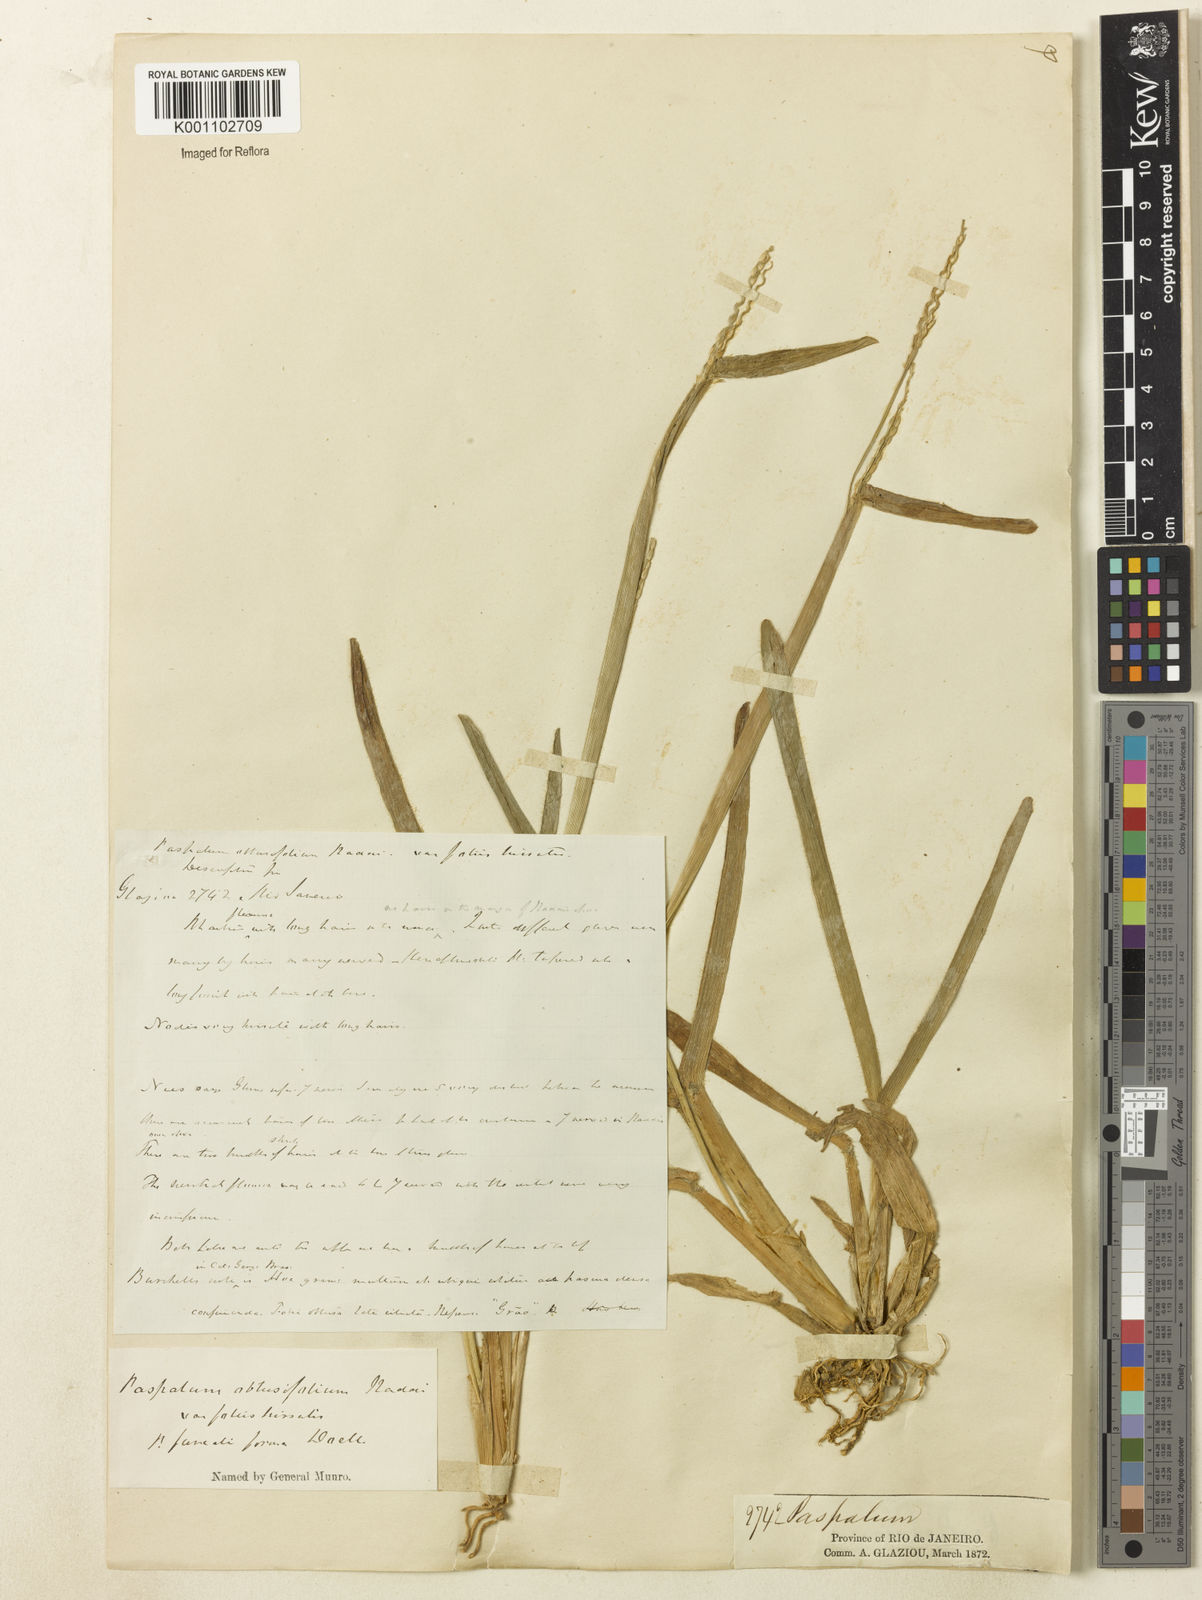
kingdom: Plantae
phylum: Tracheophyta
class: Liliopsida
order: Poales
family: Poaceae
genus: Axonopus
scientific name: Axonopus furcatus
